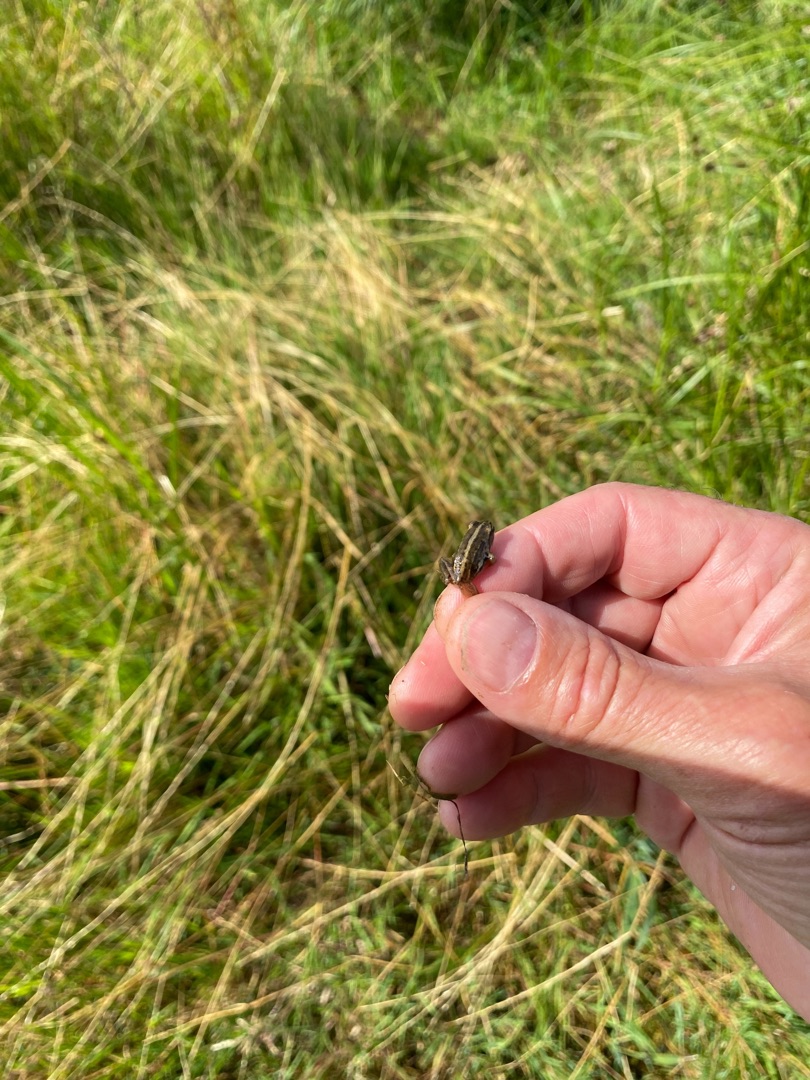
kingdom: Animalia
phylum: Chordata
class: Amphibia
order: Anura
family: Ranidae
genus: Rana
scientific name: Rana arvalis
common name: Spidssnudet frø
